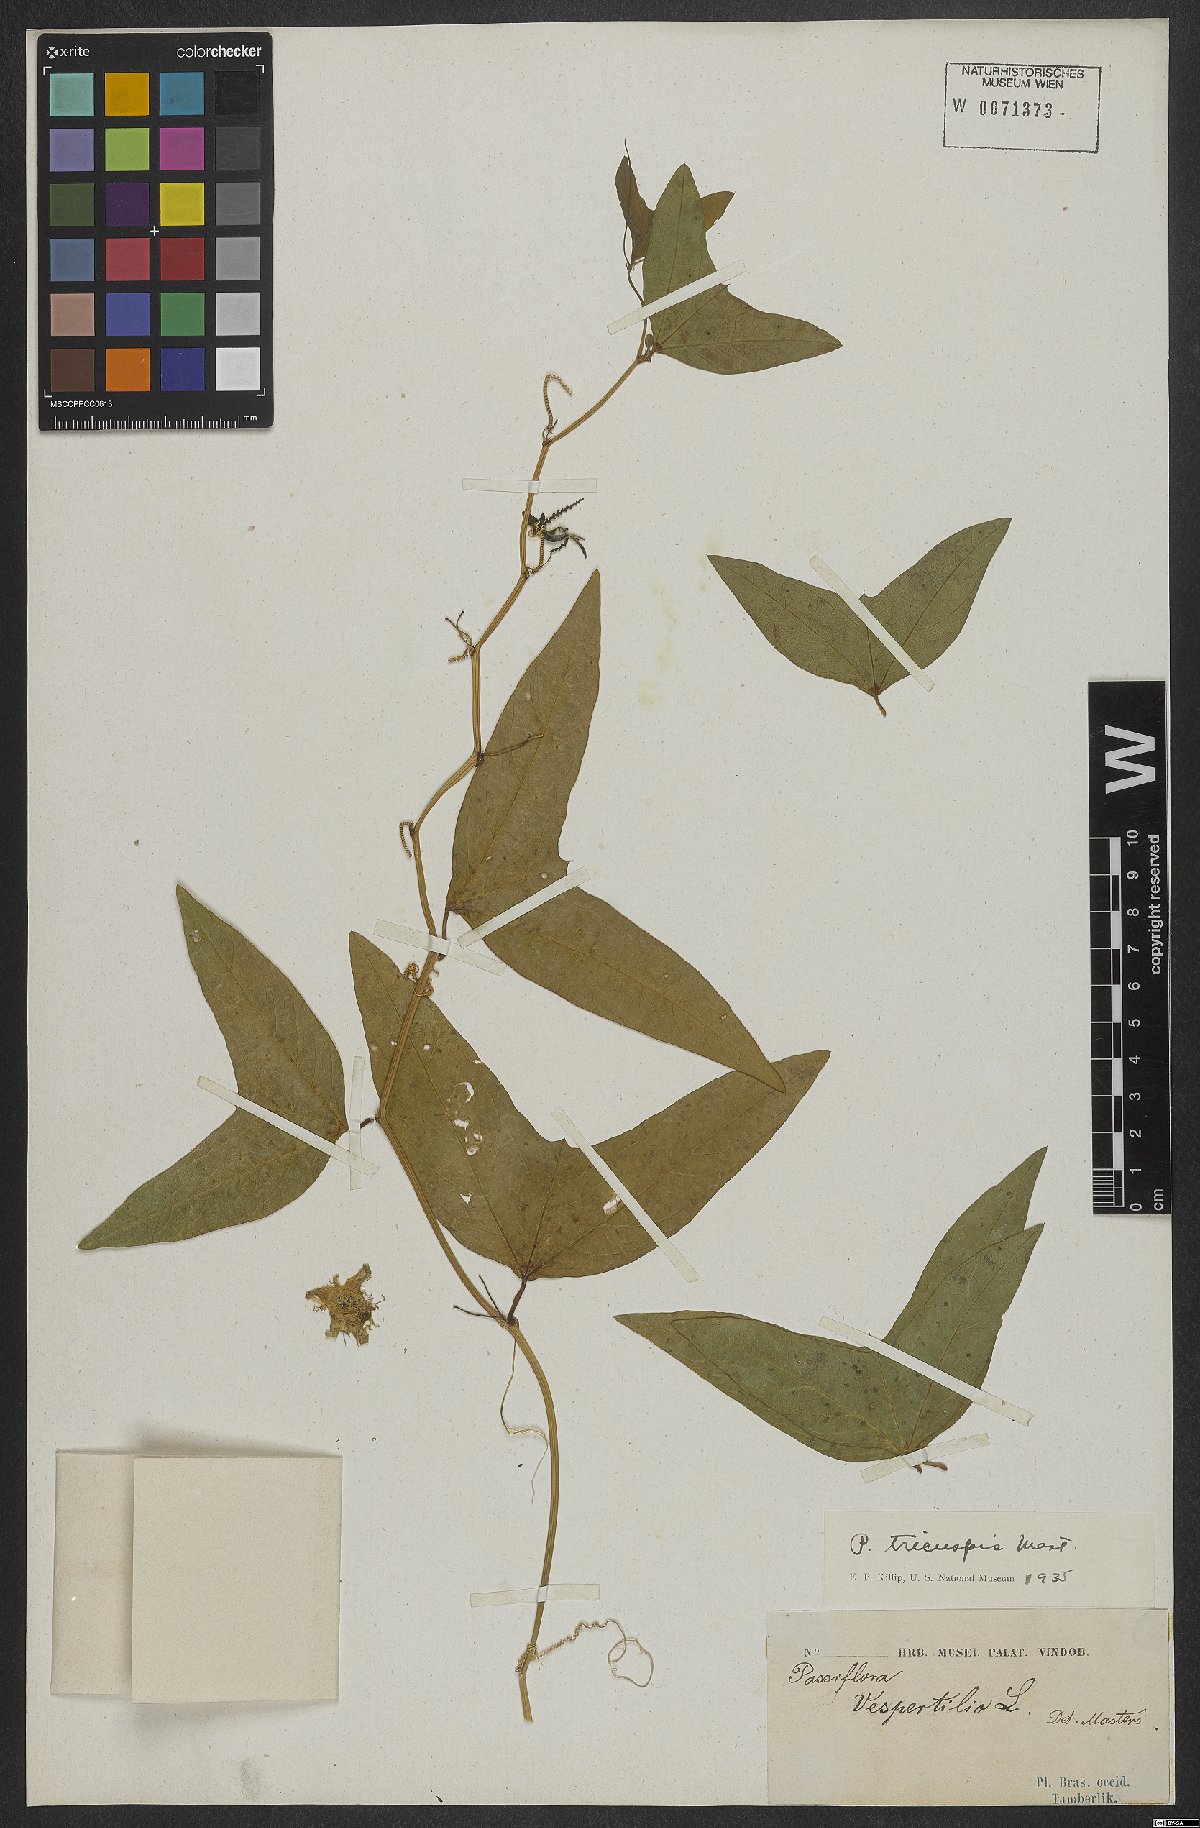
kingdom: Plantae
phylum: Tracheophyta
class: Magnoliopsida
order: Malpighiales
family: Passifloraceae
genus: Passiflora
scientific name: Passiflora tricuspis
